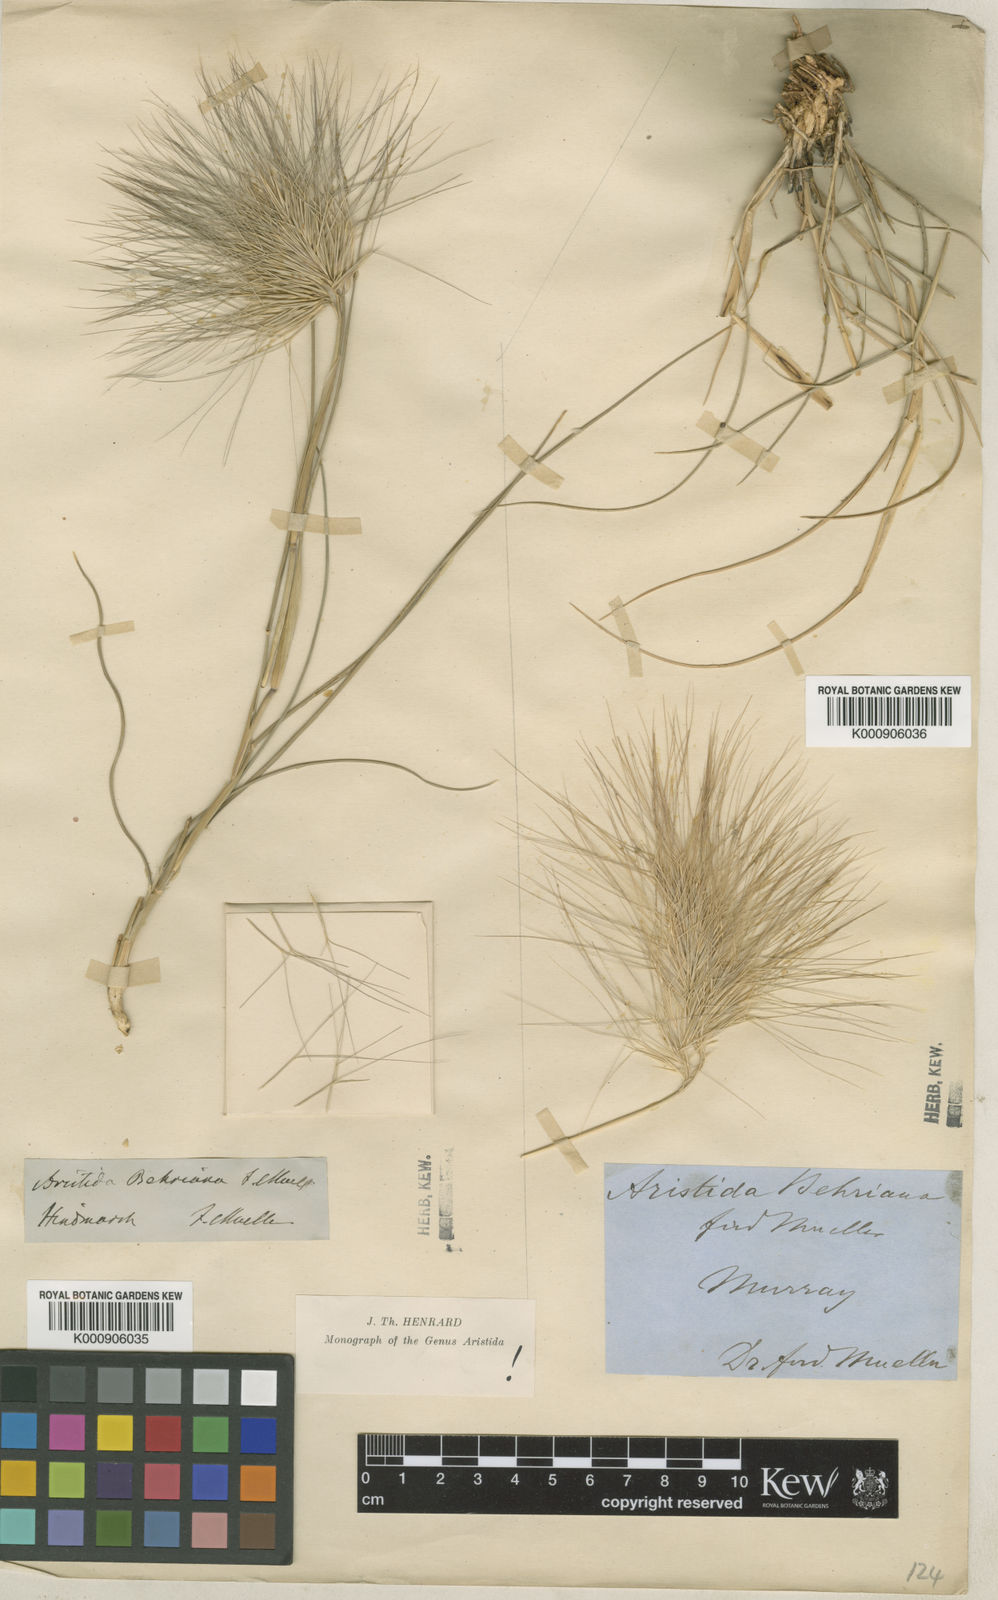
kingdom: Plantae
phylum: Tracheophyta
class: Liliopsida
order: Poales
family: Poaceae
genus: Aristida
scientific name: Aristida behriana
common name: Long-awn wire grass
